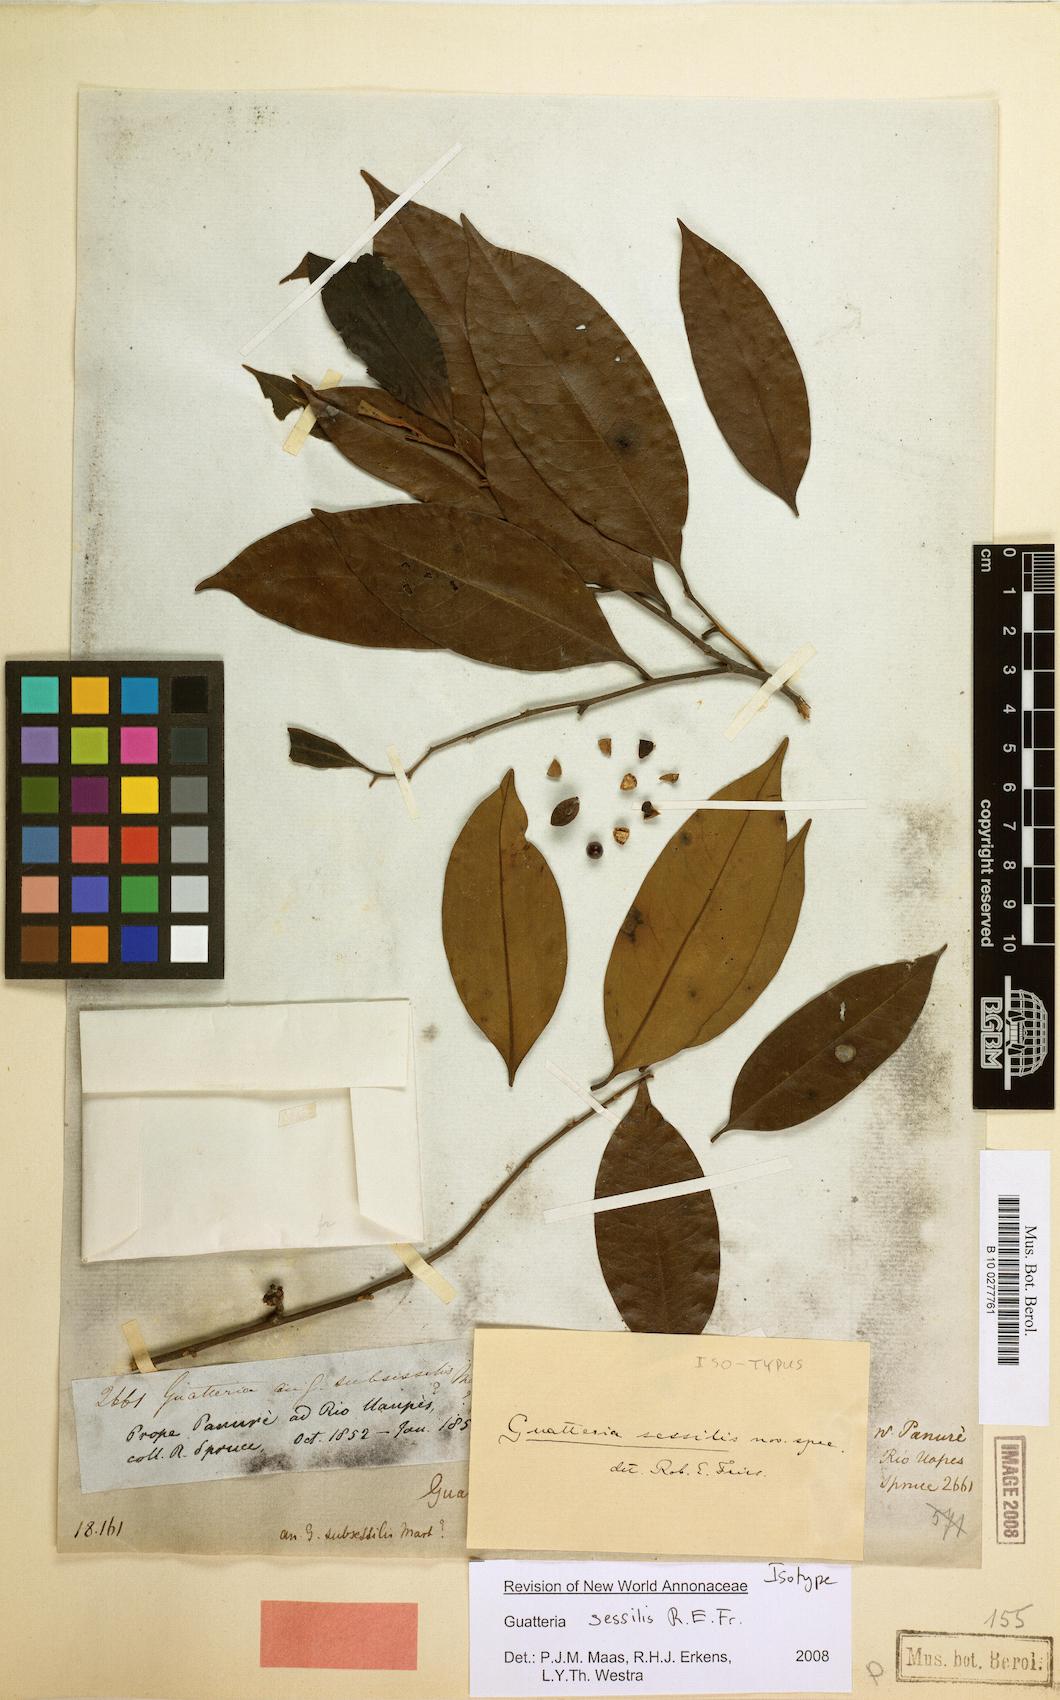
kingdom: Plantae
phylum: Tracheophyta
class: Magnoliopsida
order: Magnoliales
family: Annonaceae
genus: Guatteria
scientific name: Guatteria schomburgkiana
